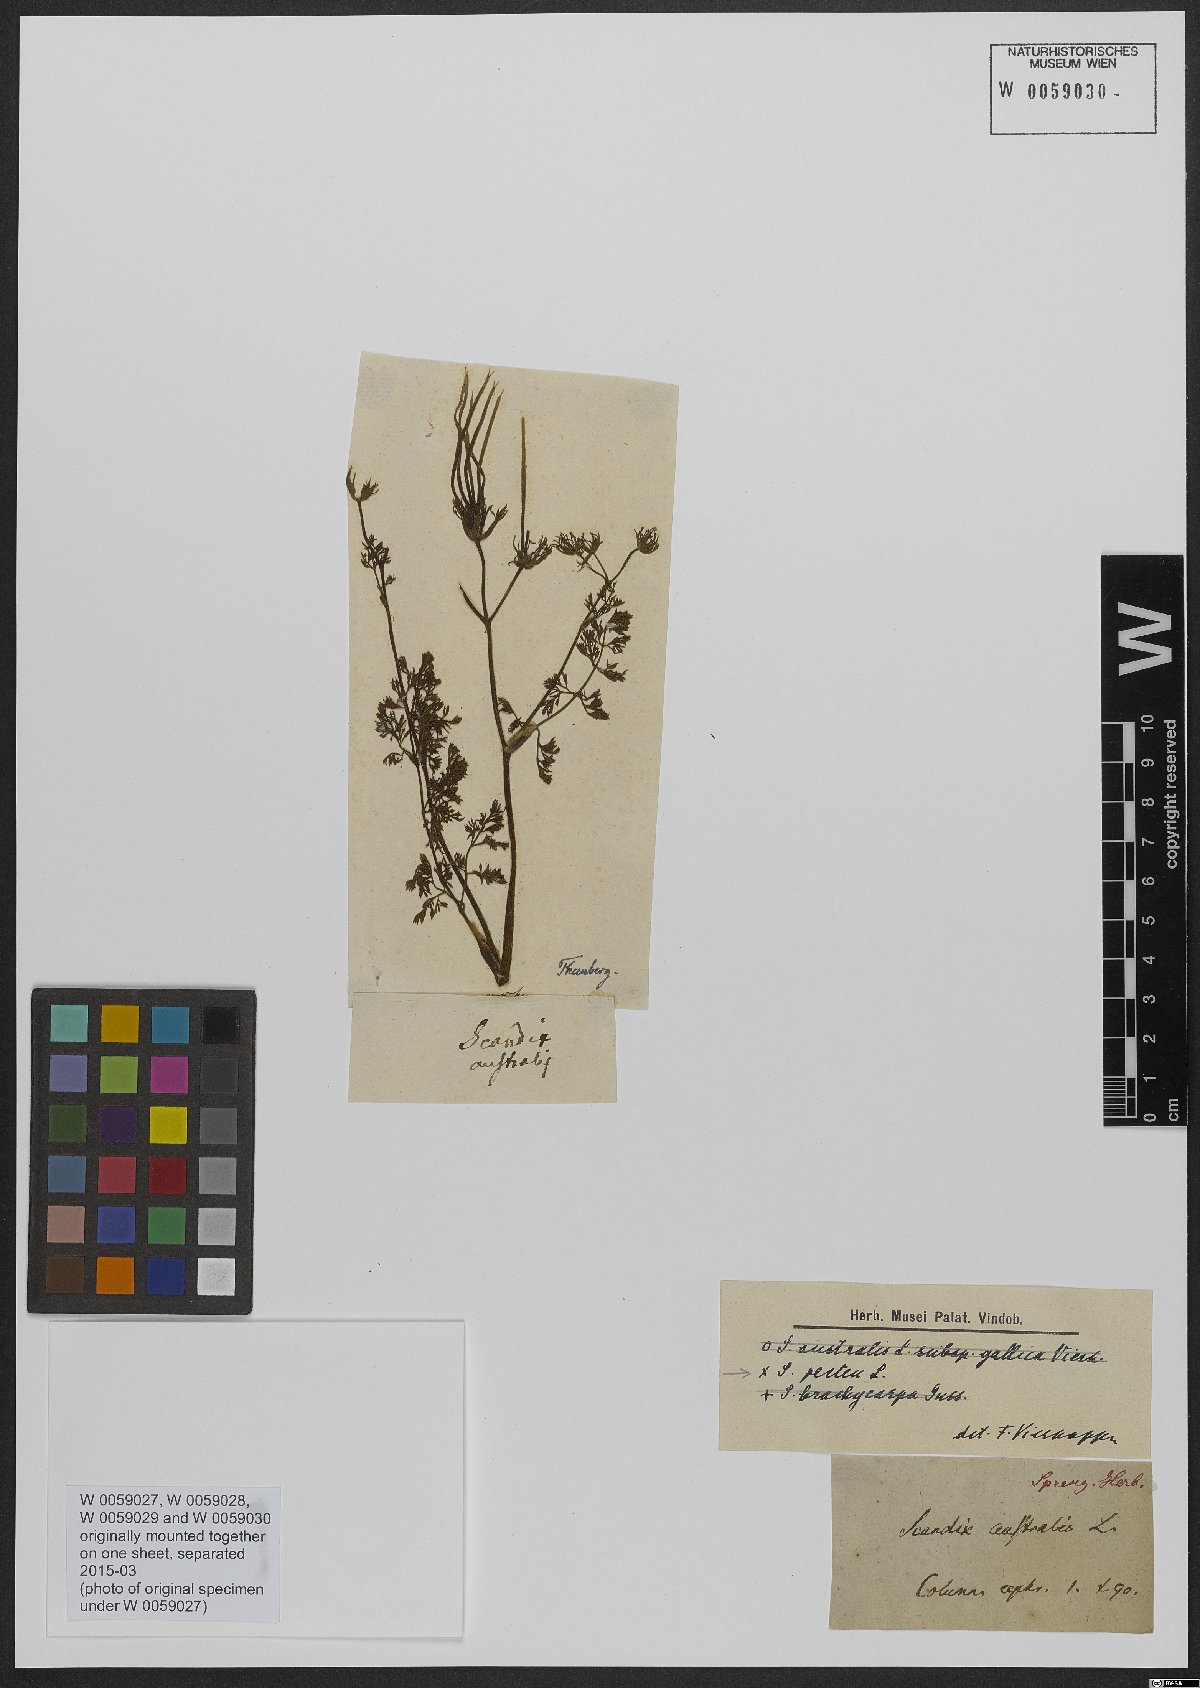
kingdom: Plantae
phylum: Tracheophyta
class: Magnoliopsida
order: Apiales
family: Apiaceae
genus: Scandix
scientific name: Scandix australis
